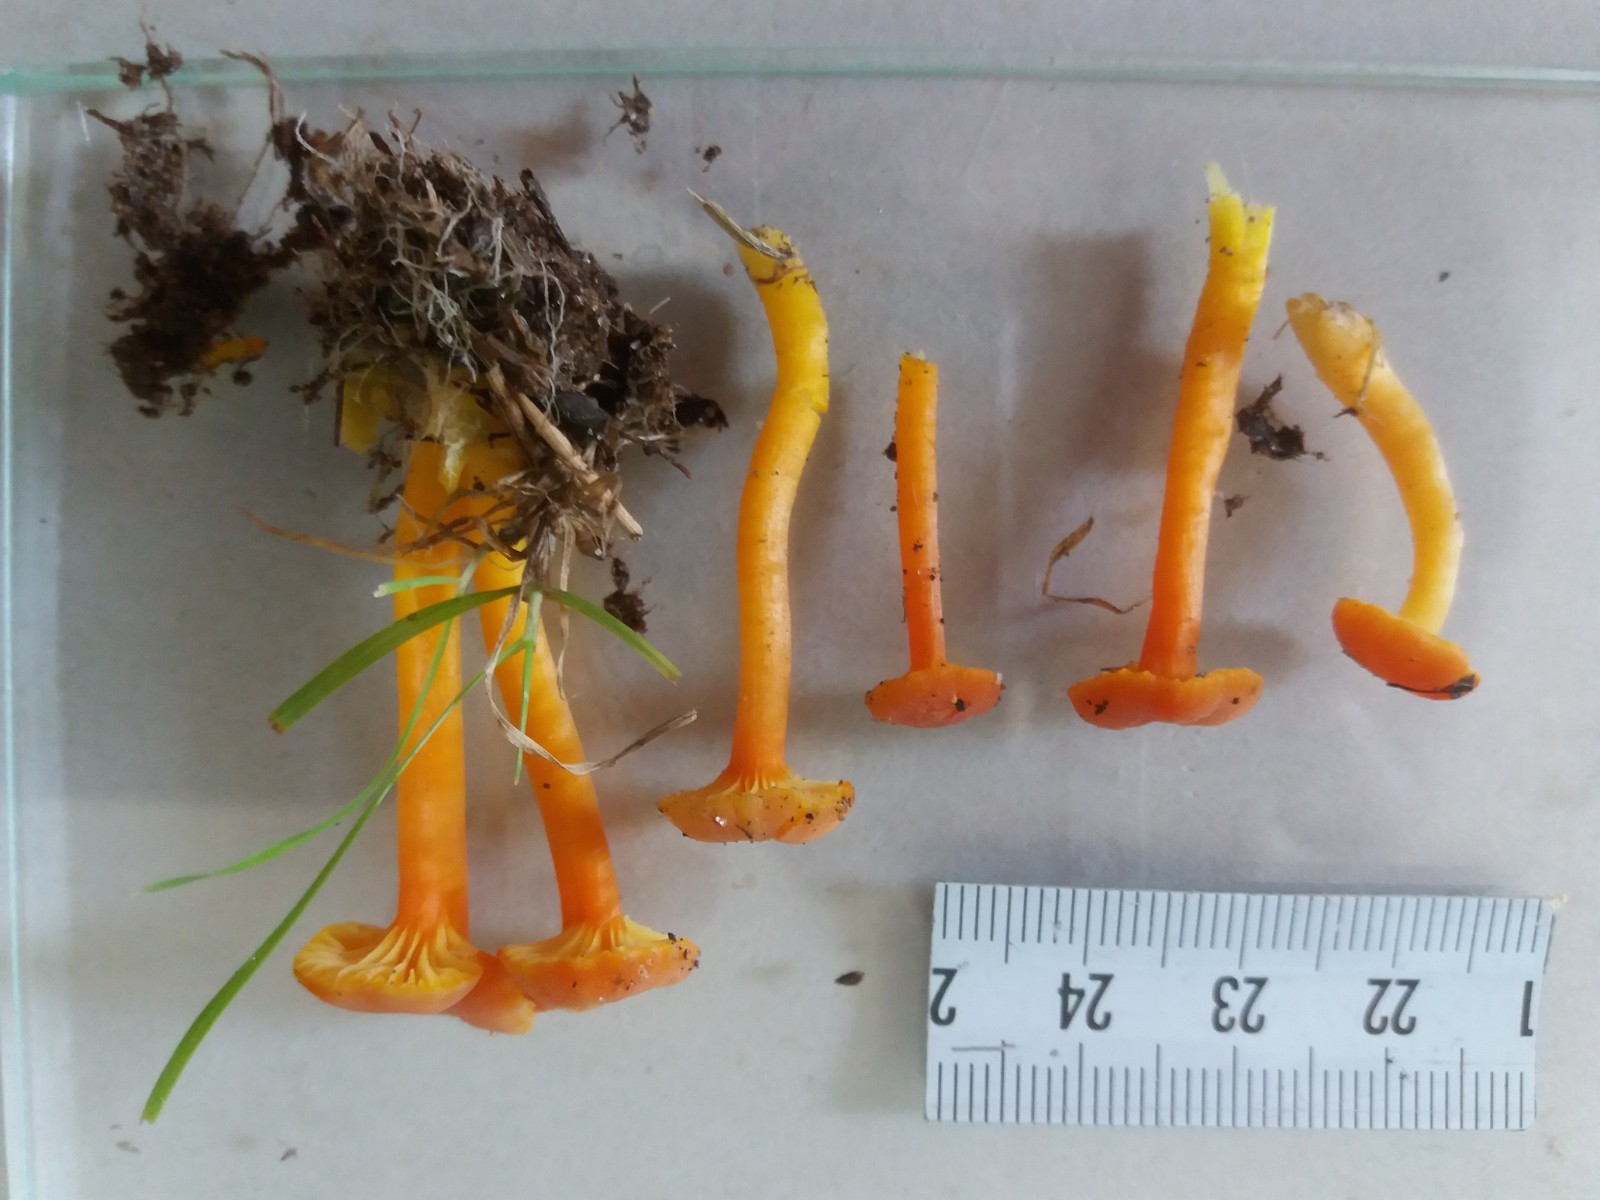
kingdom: Fungi
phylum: Basidiomycota
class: Agaricomycetes
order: Agaricales
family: Hygrophoraceae
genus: Hygrocybe
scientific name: Hygrocybe cantharellus
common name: kantarel-vokshat
